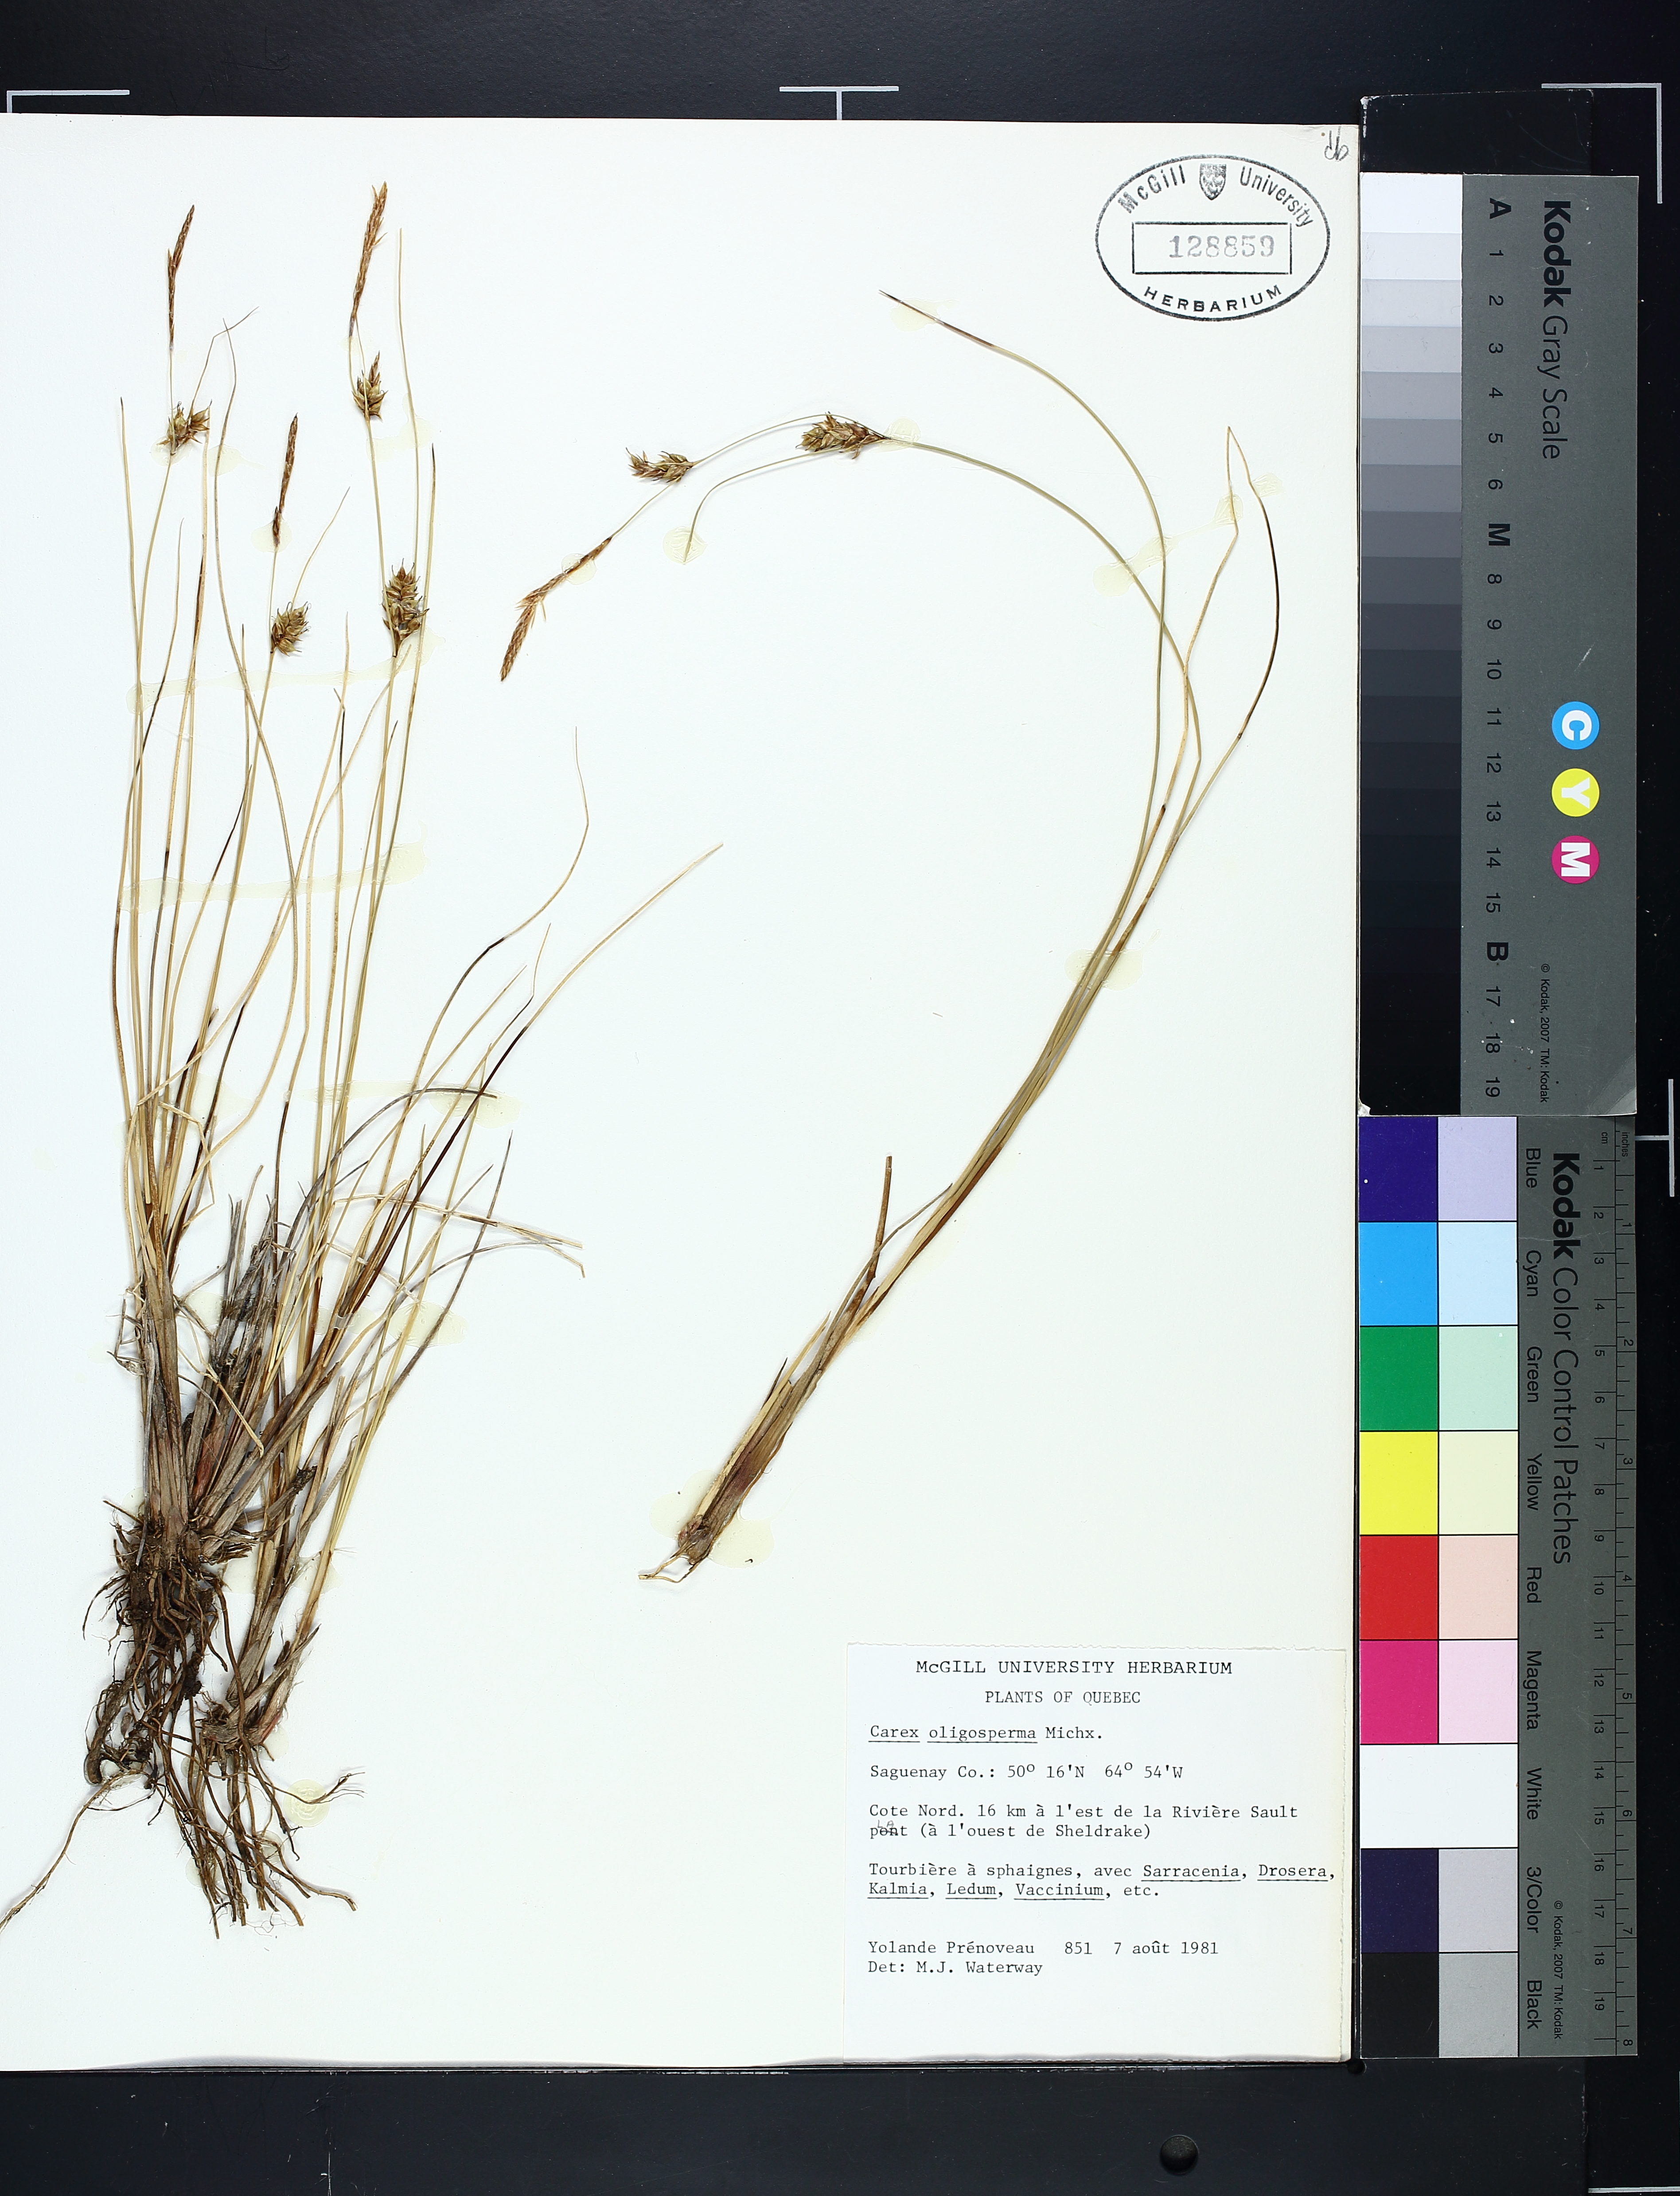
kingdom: Plantae
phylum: Tracheophyta
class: Liliopsida
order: Poales
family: Cyperaceae
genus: Carex
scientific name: Carex oligosperma
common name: Few-seed sedge
